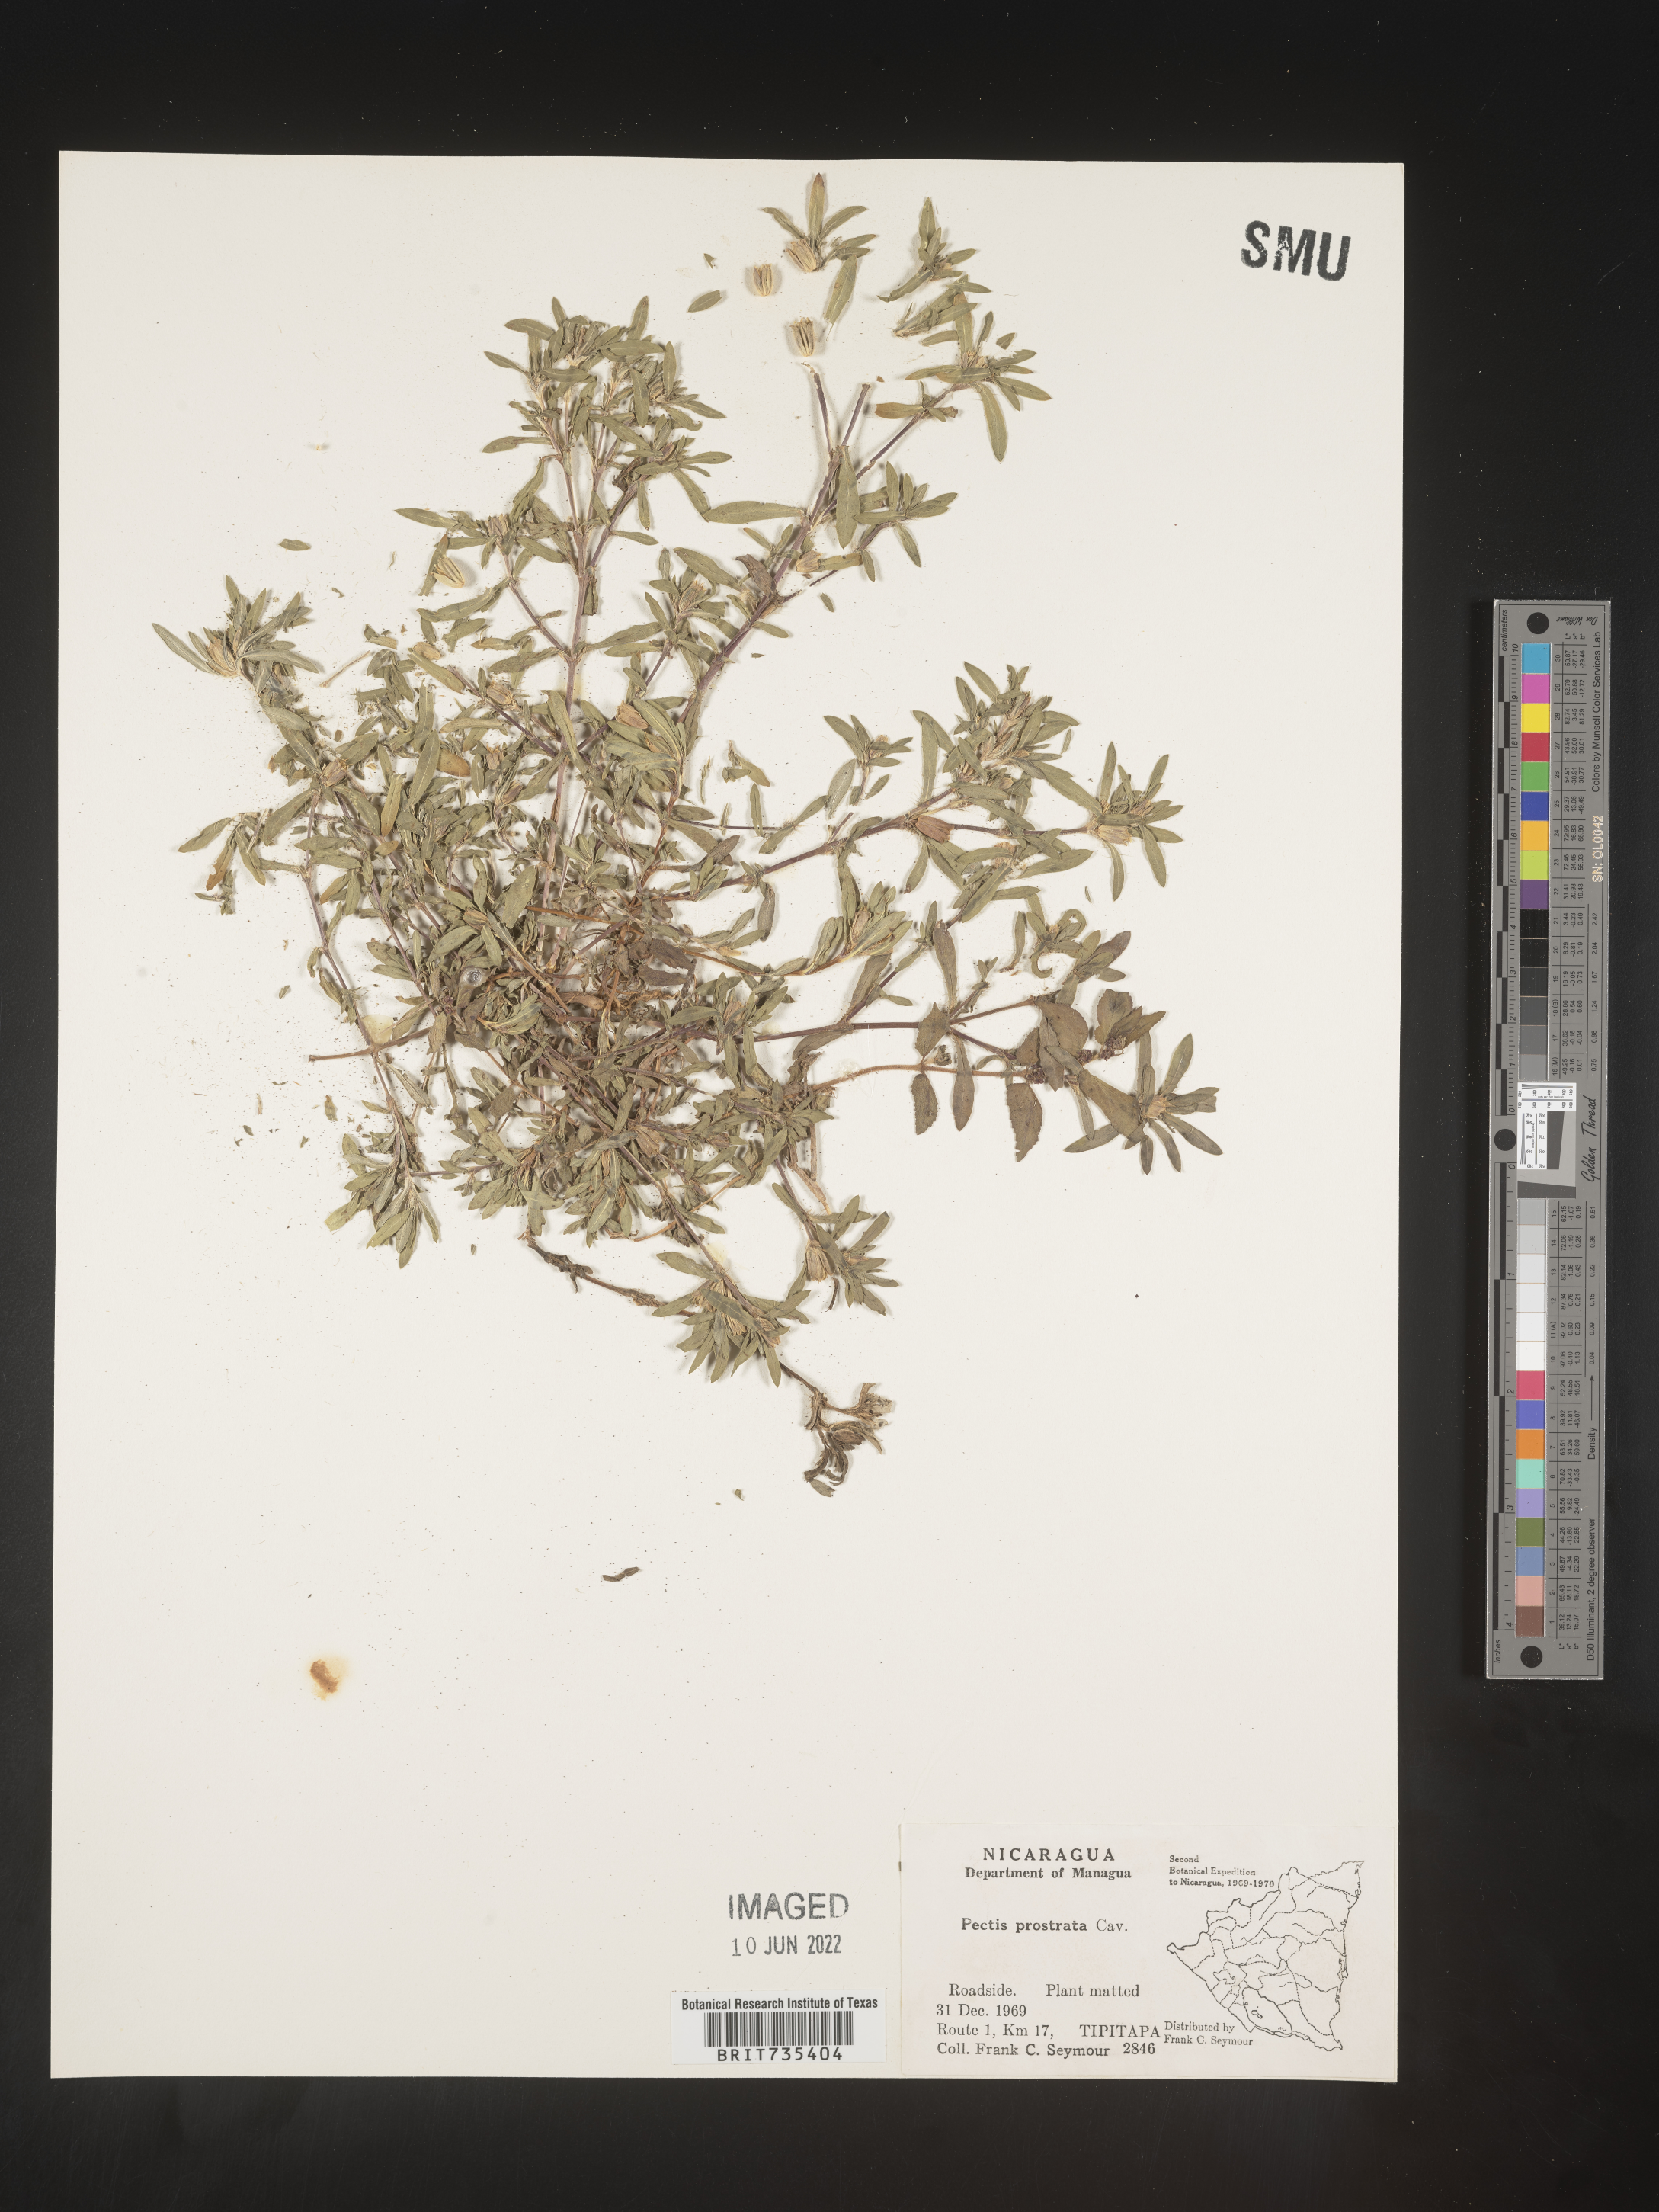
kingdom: Plantae
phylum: Tracheophyta
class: Magnoliopsida
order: Asterales
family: Asteraceae
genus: Pectis
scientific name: Pectis
